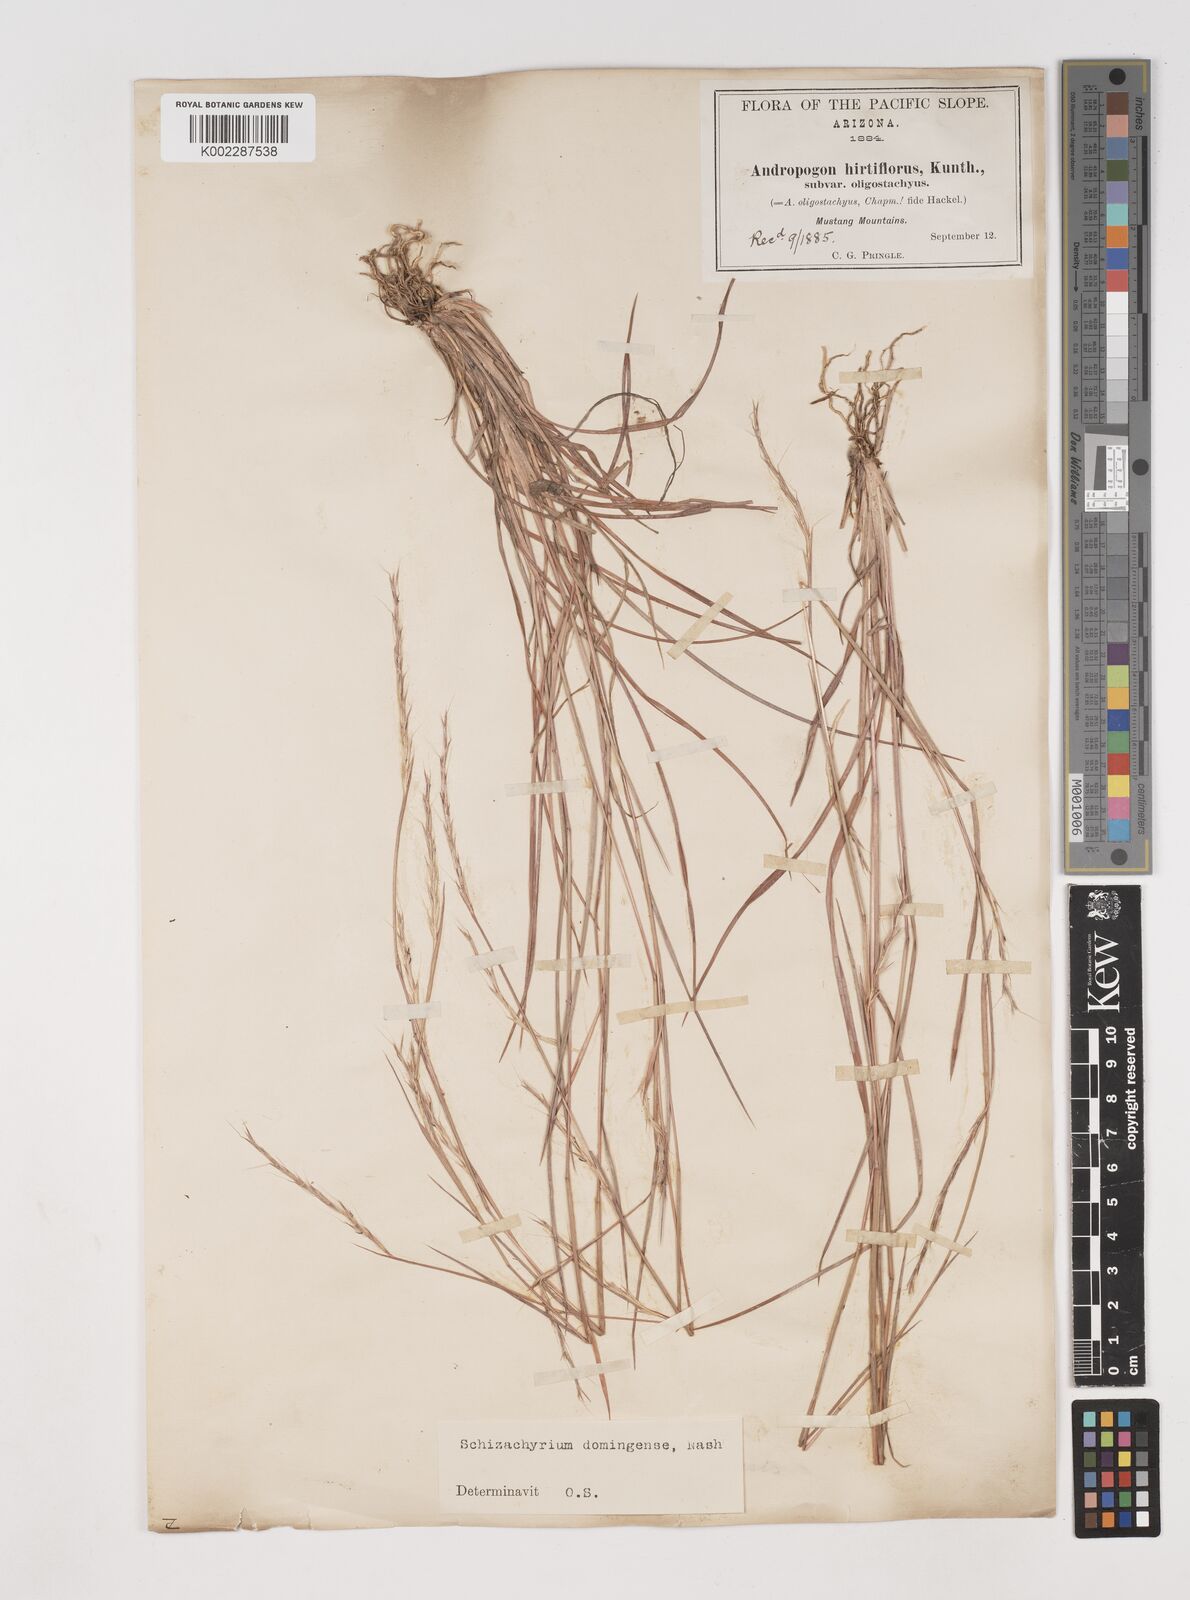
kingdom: Plantae
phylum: Tracheophyta
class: Liliopsida
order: Poales
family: Poaceae
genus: Schizachyrium
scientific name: Schizachyrium sanguineum
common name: Crimson bluestem
